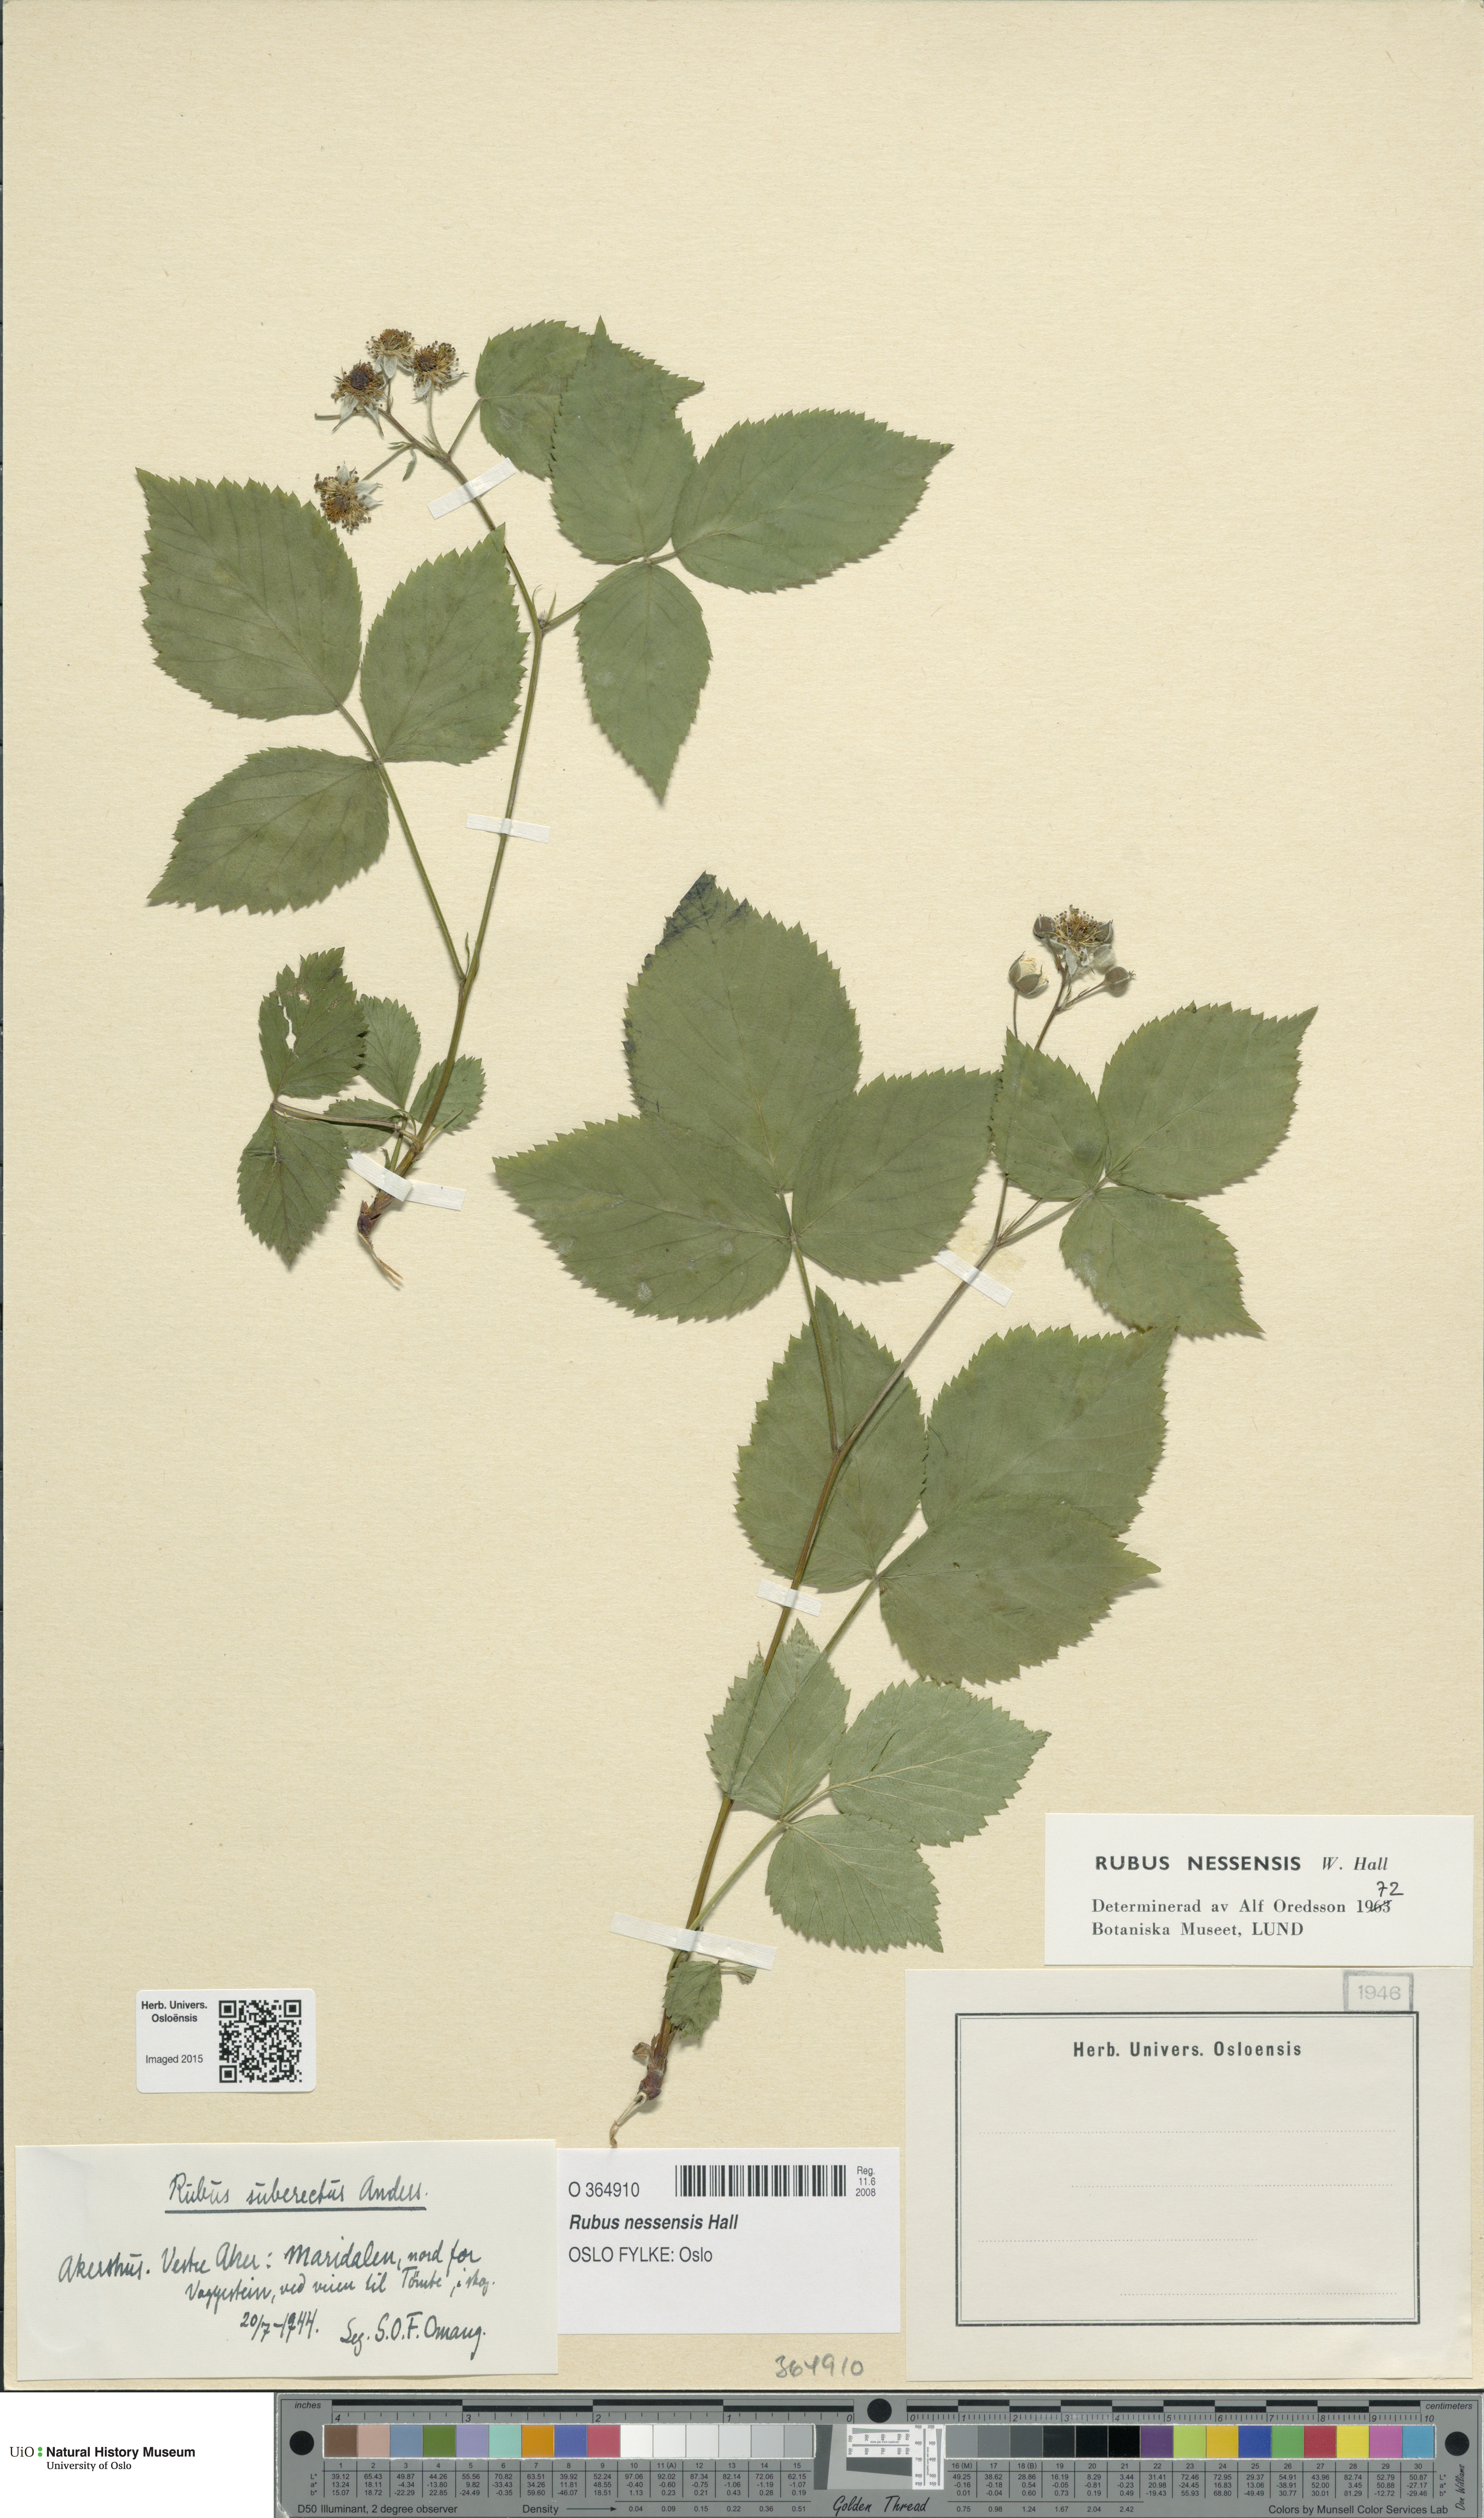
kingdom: Plantae
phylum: Tracheophyta
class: Magnoliopsida
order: Rosales
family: Rosaceae
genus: Rubus
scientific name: Rubus polonicus
